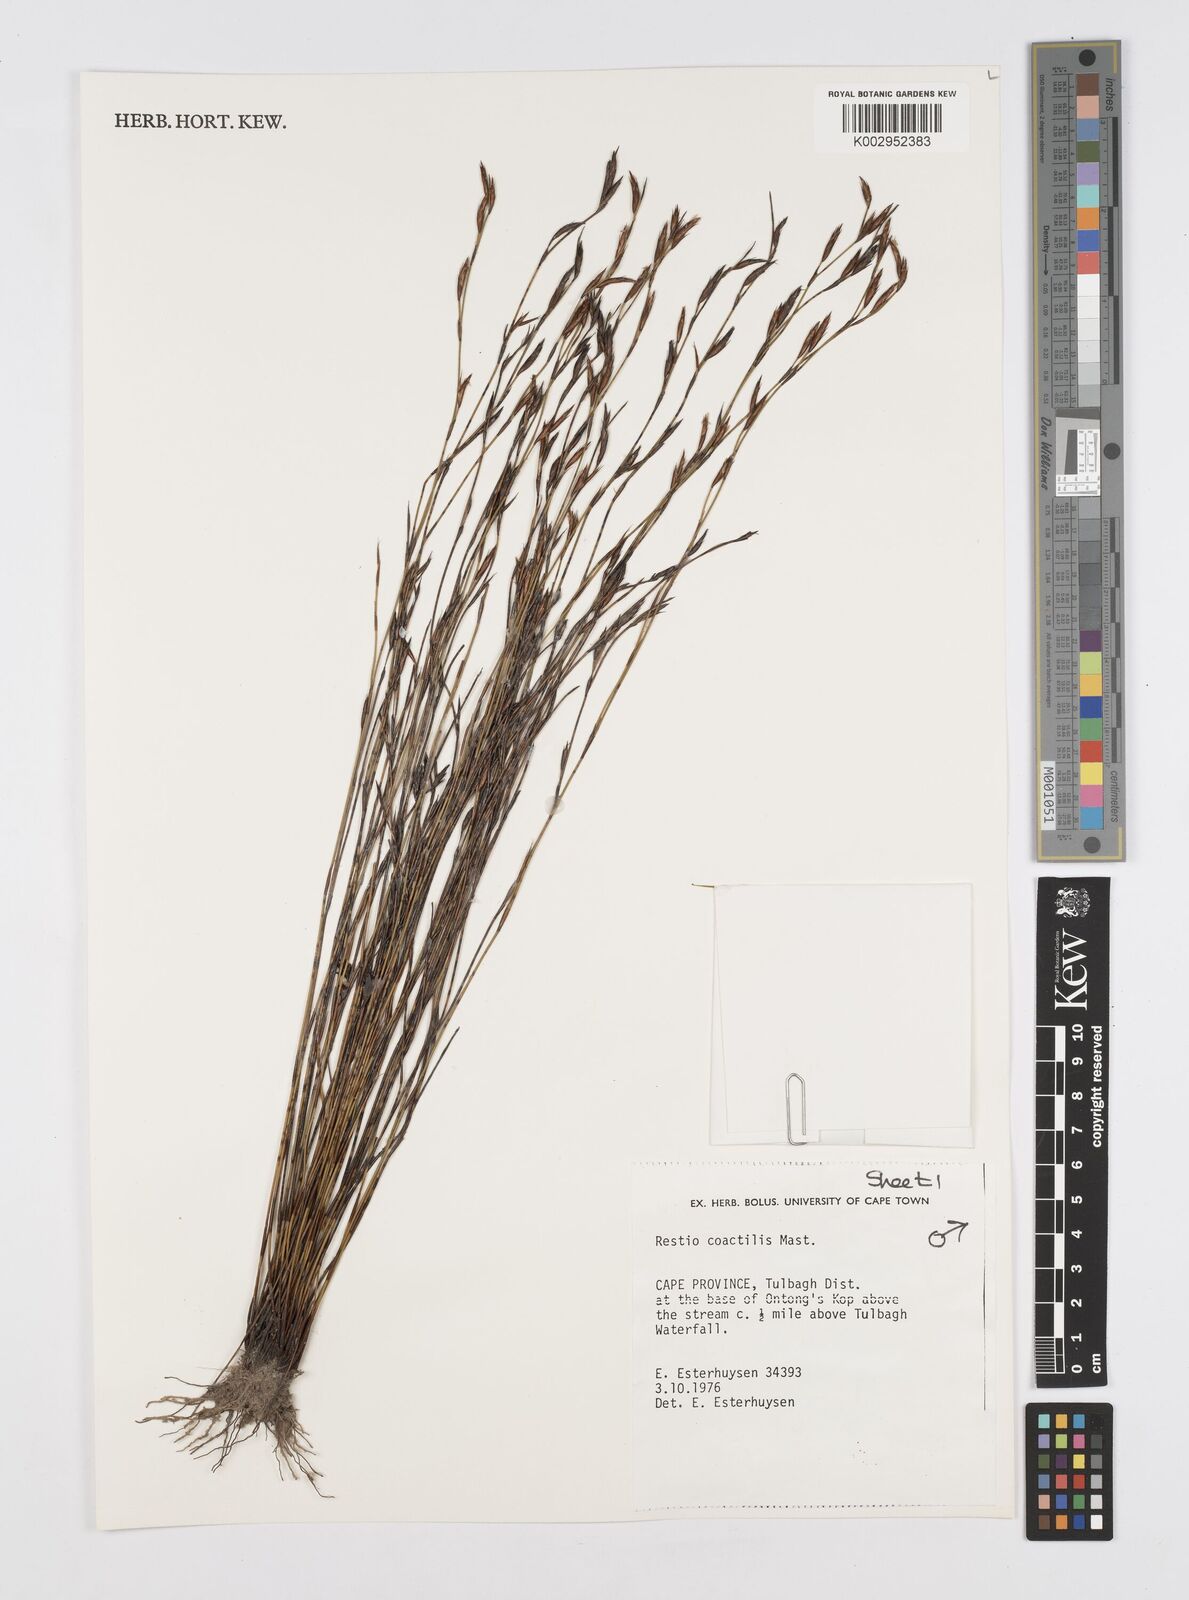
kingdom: Plantae
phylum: Tracheophyta
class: Liliopsida
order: Poales
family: Restionaceae
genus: Restio
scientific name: Restio coactilis
